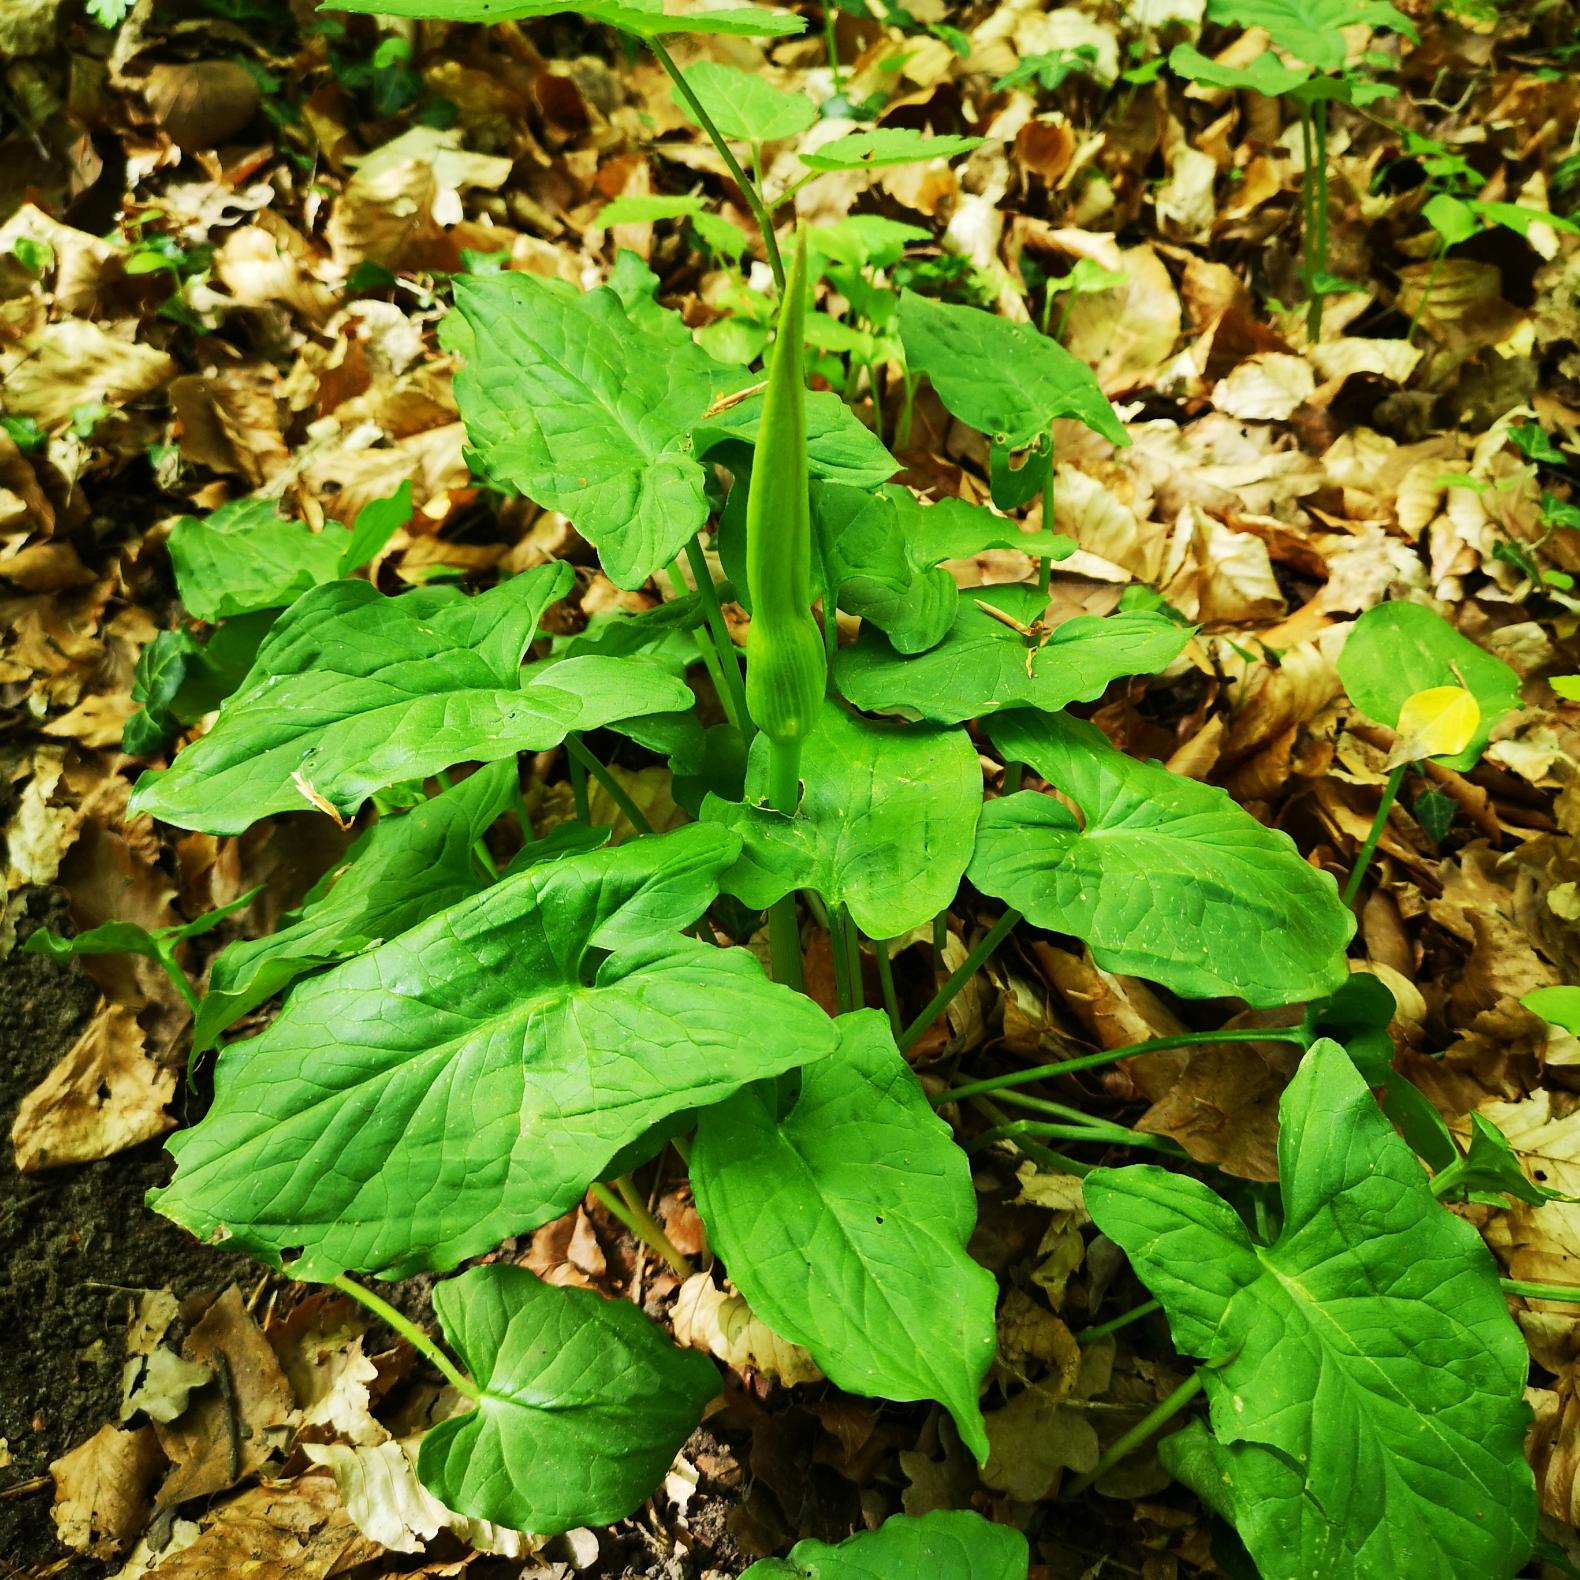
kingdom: Plantae
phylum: Tracheophyta
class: Liliopsida
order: Alismatales
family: Araceae
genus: Arum
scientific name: Arum
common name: Arumslægten
